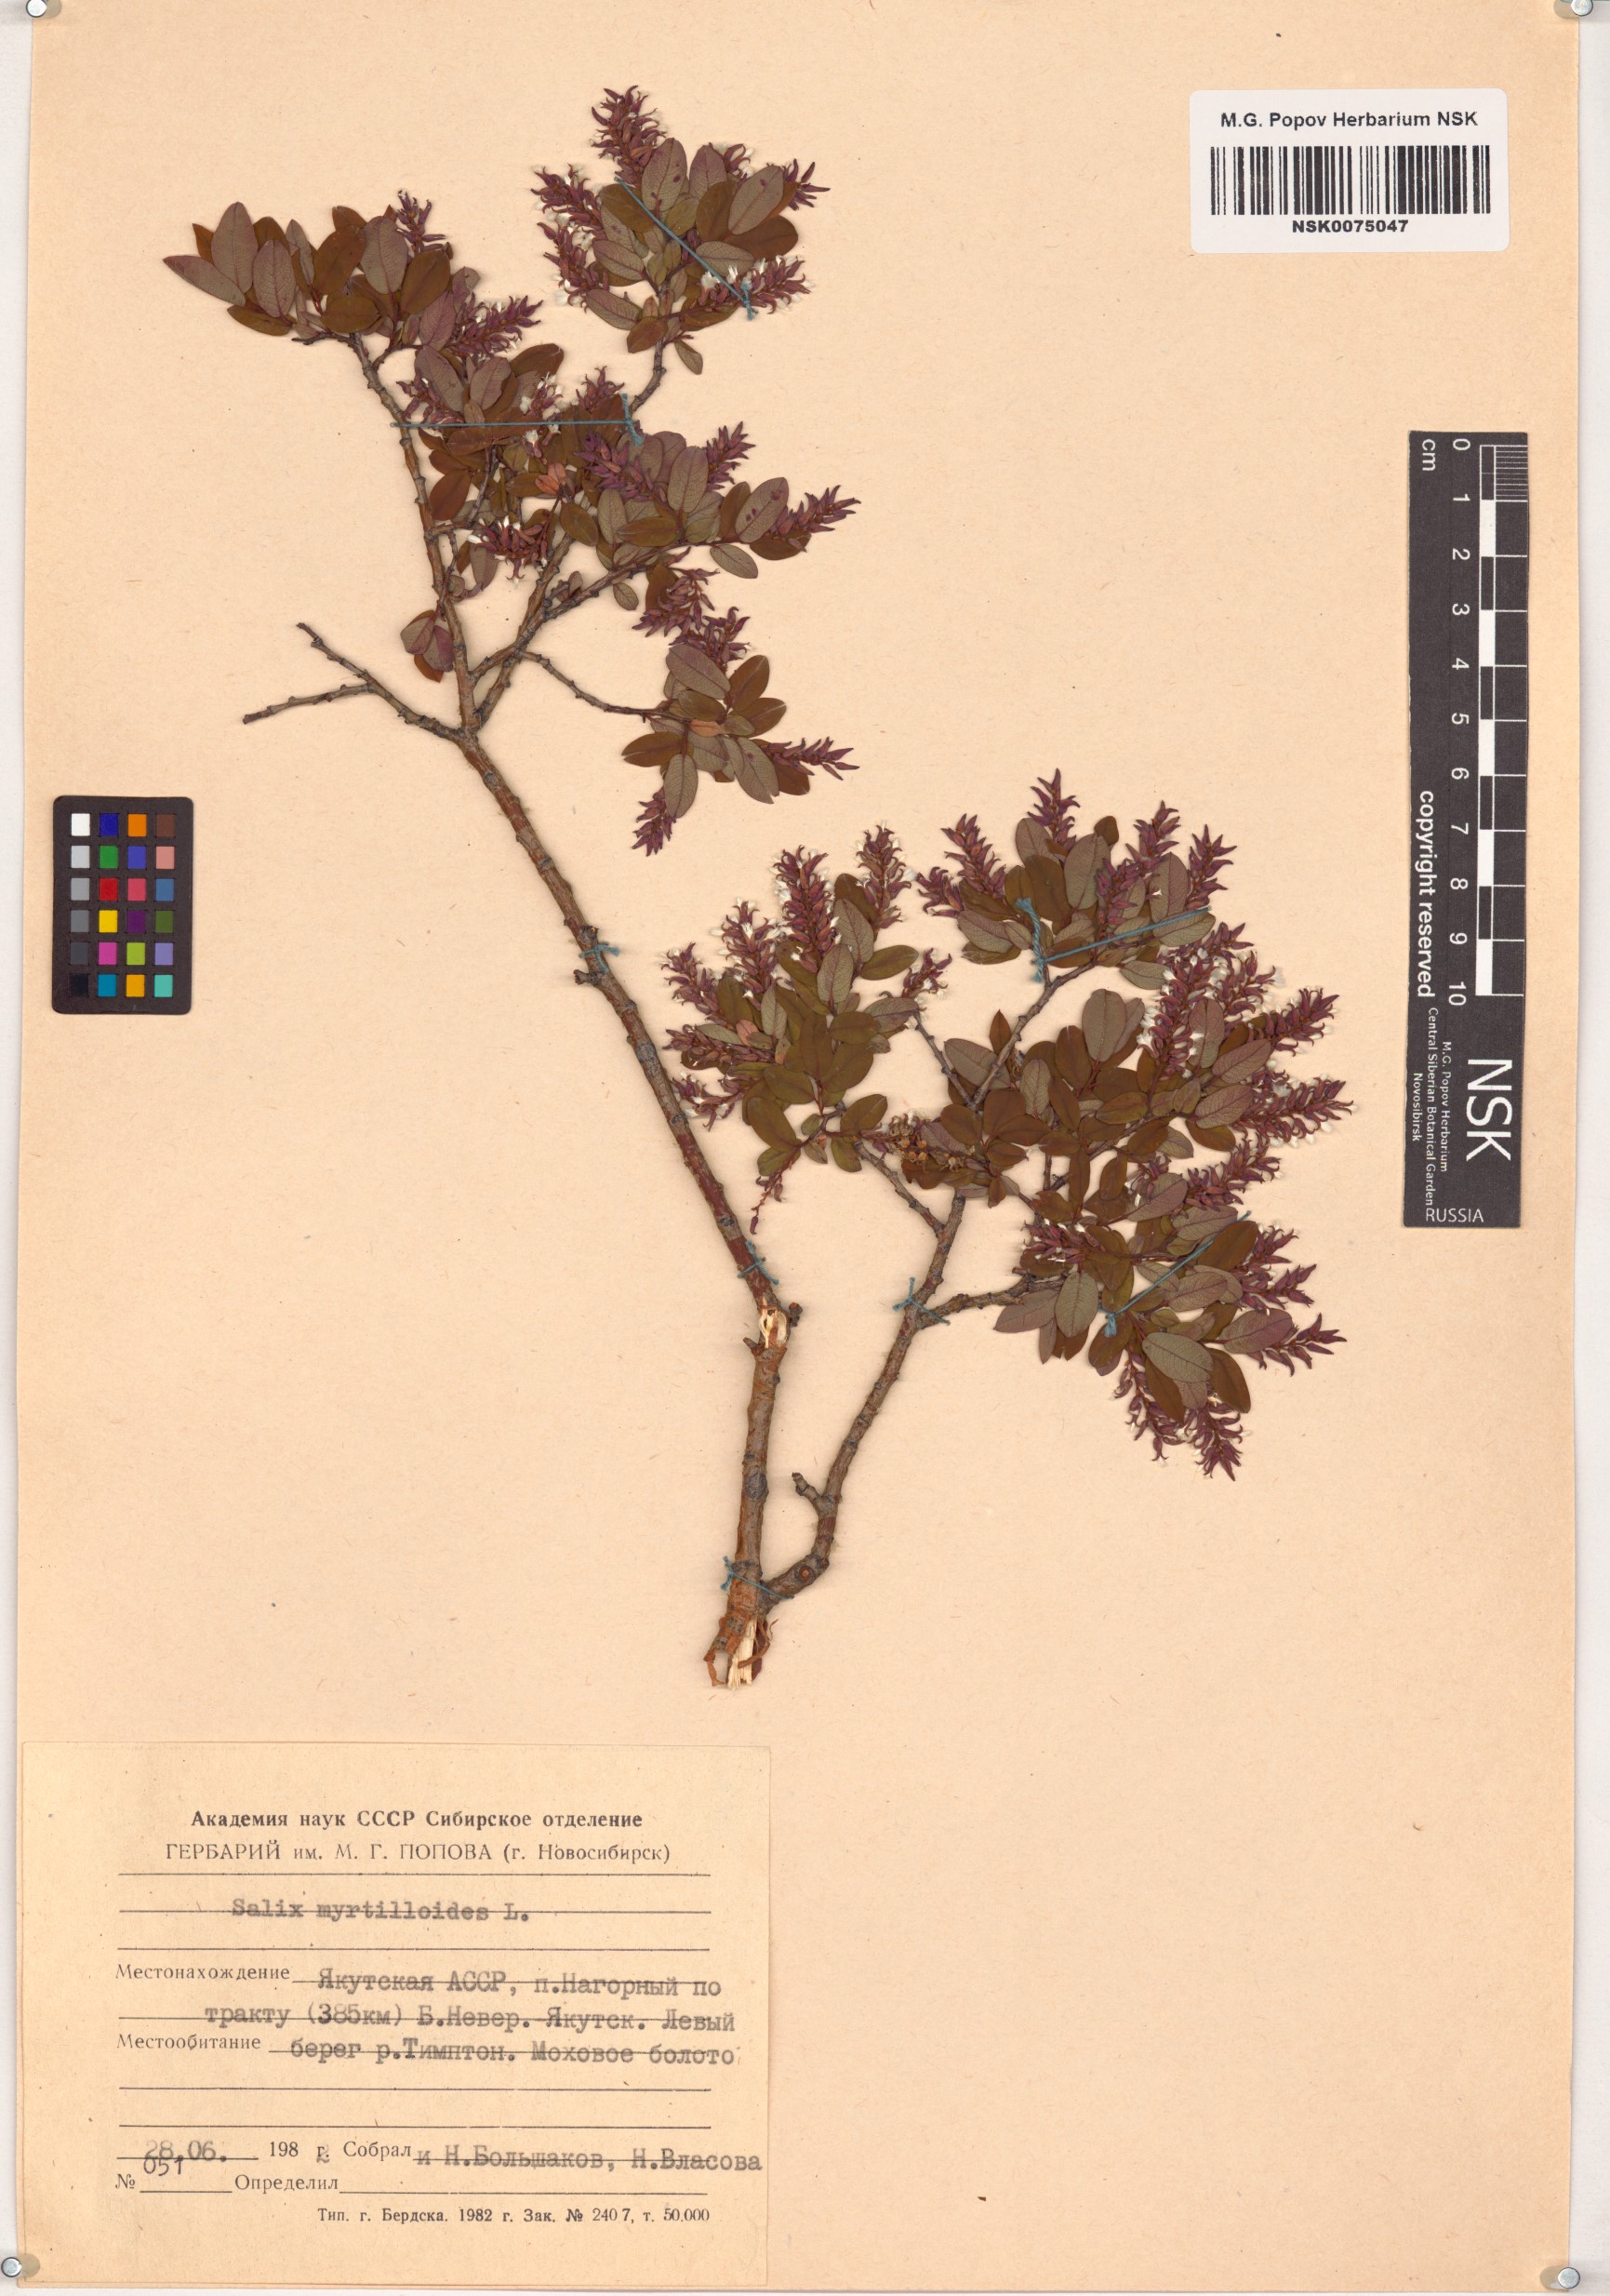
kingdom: Plantae
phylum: Tracheophyta
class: Magnoliopsida
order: Malpighiales
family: Salicaceae
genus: Salix
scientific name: Salix myrtilloides
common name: Myrtle-leaved willow
